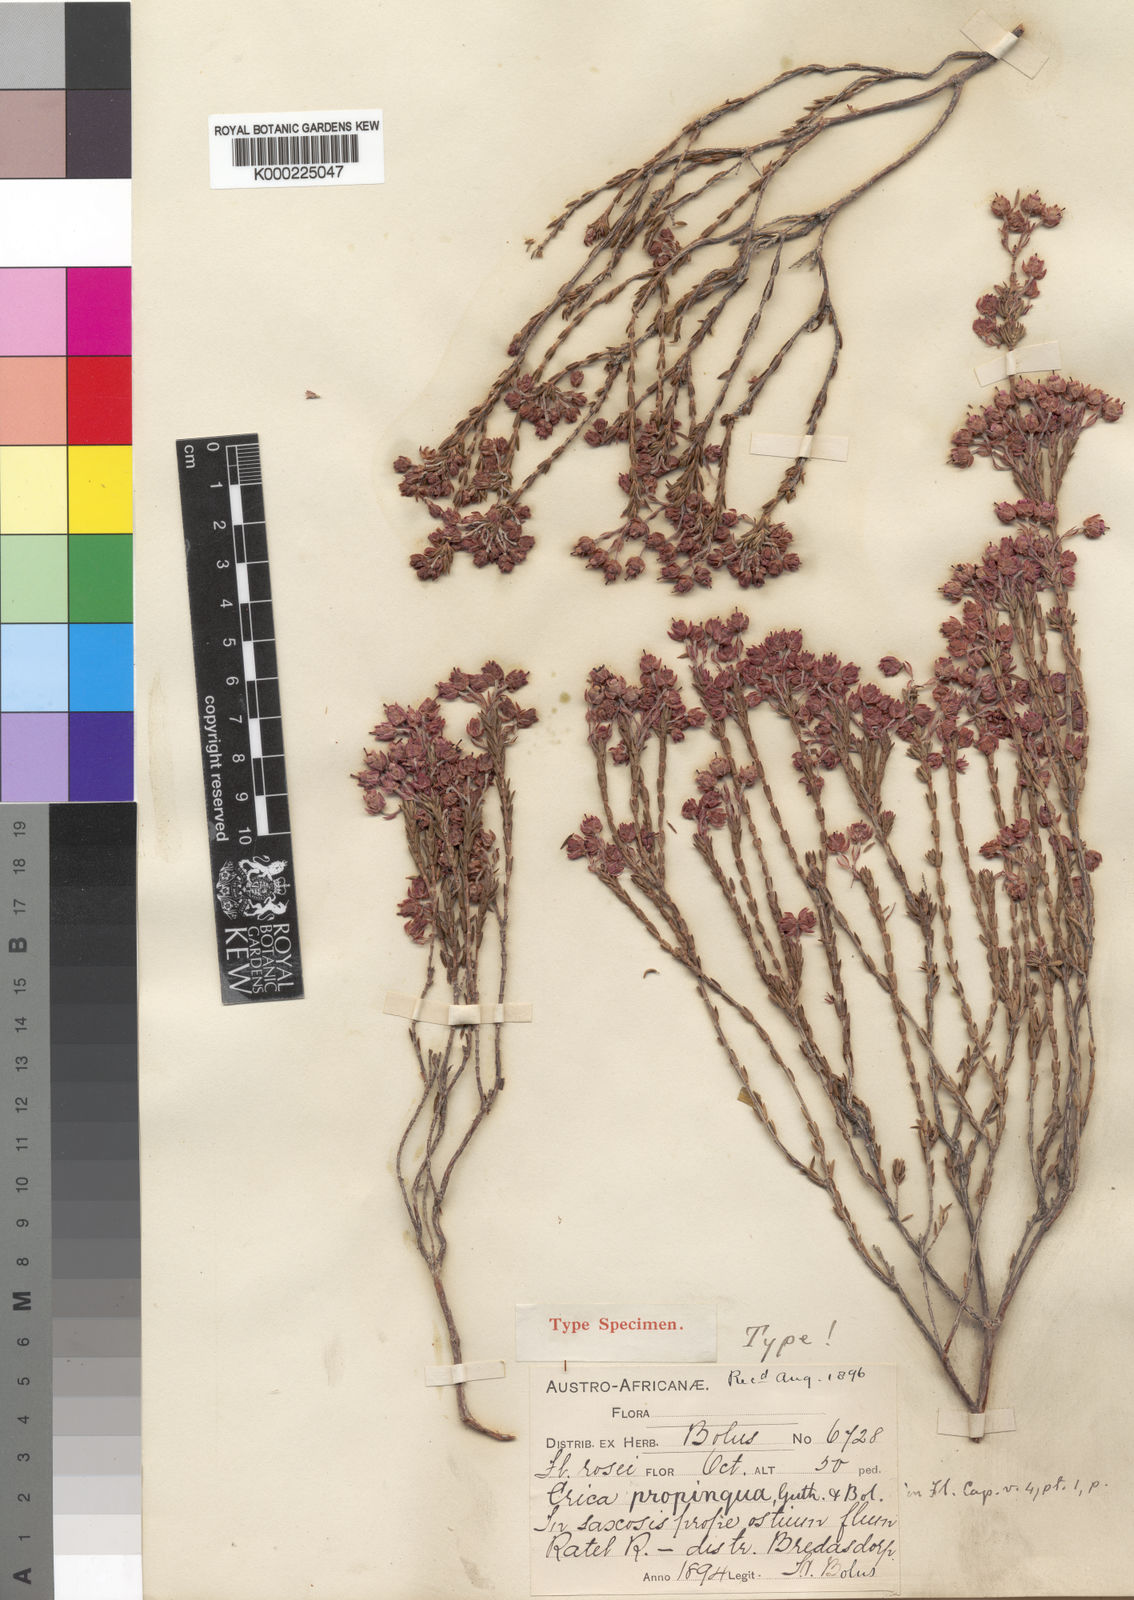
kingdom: Plantae
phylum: Tracheophyta
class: Magnoliopsida
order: Ericales
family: Ericaceae
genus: Erica
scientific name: Erica propinqua
